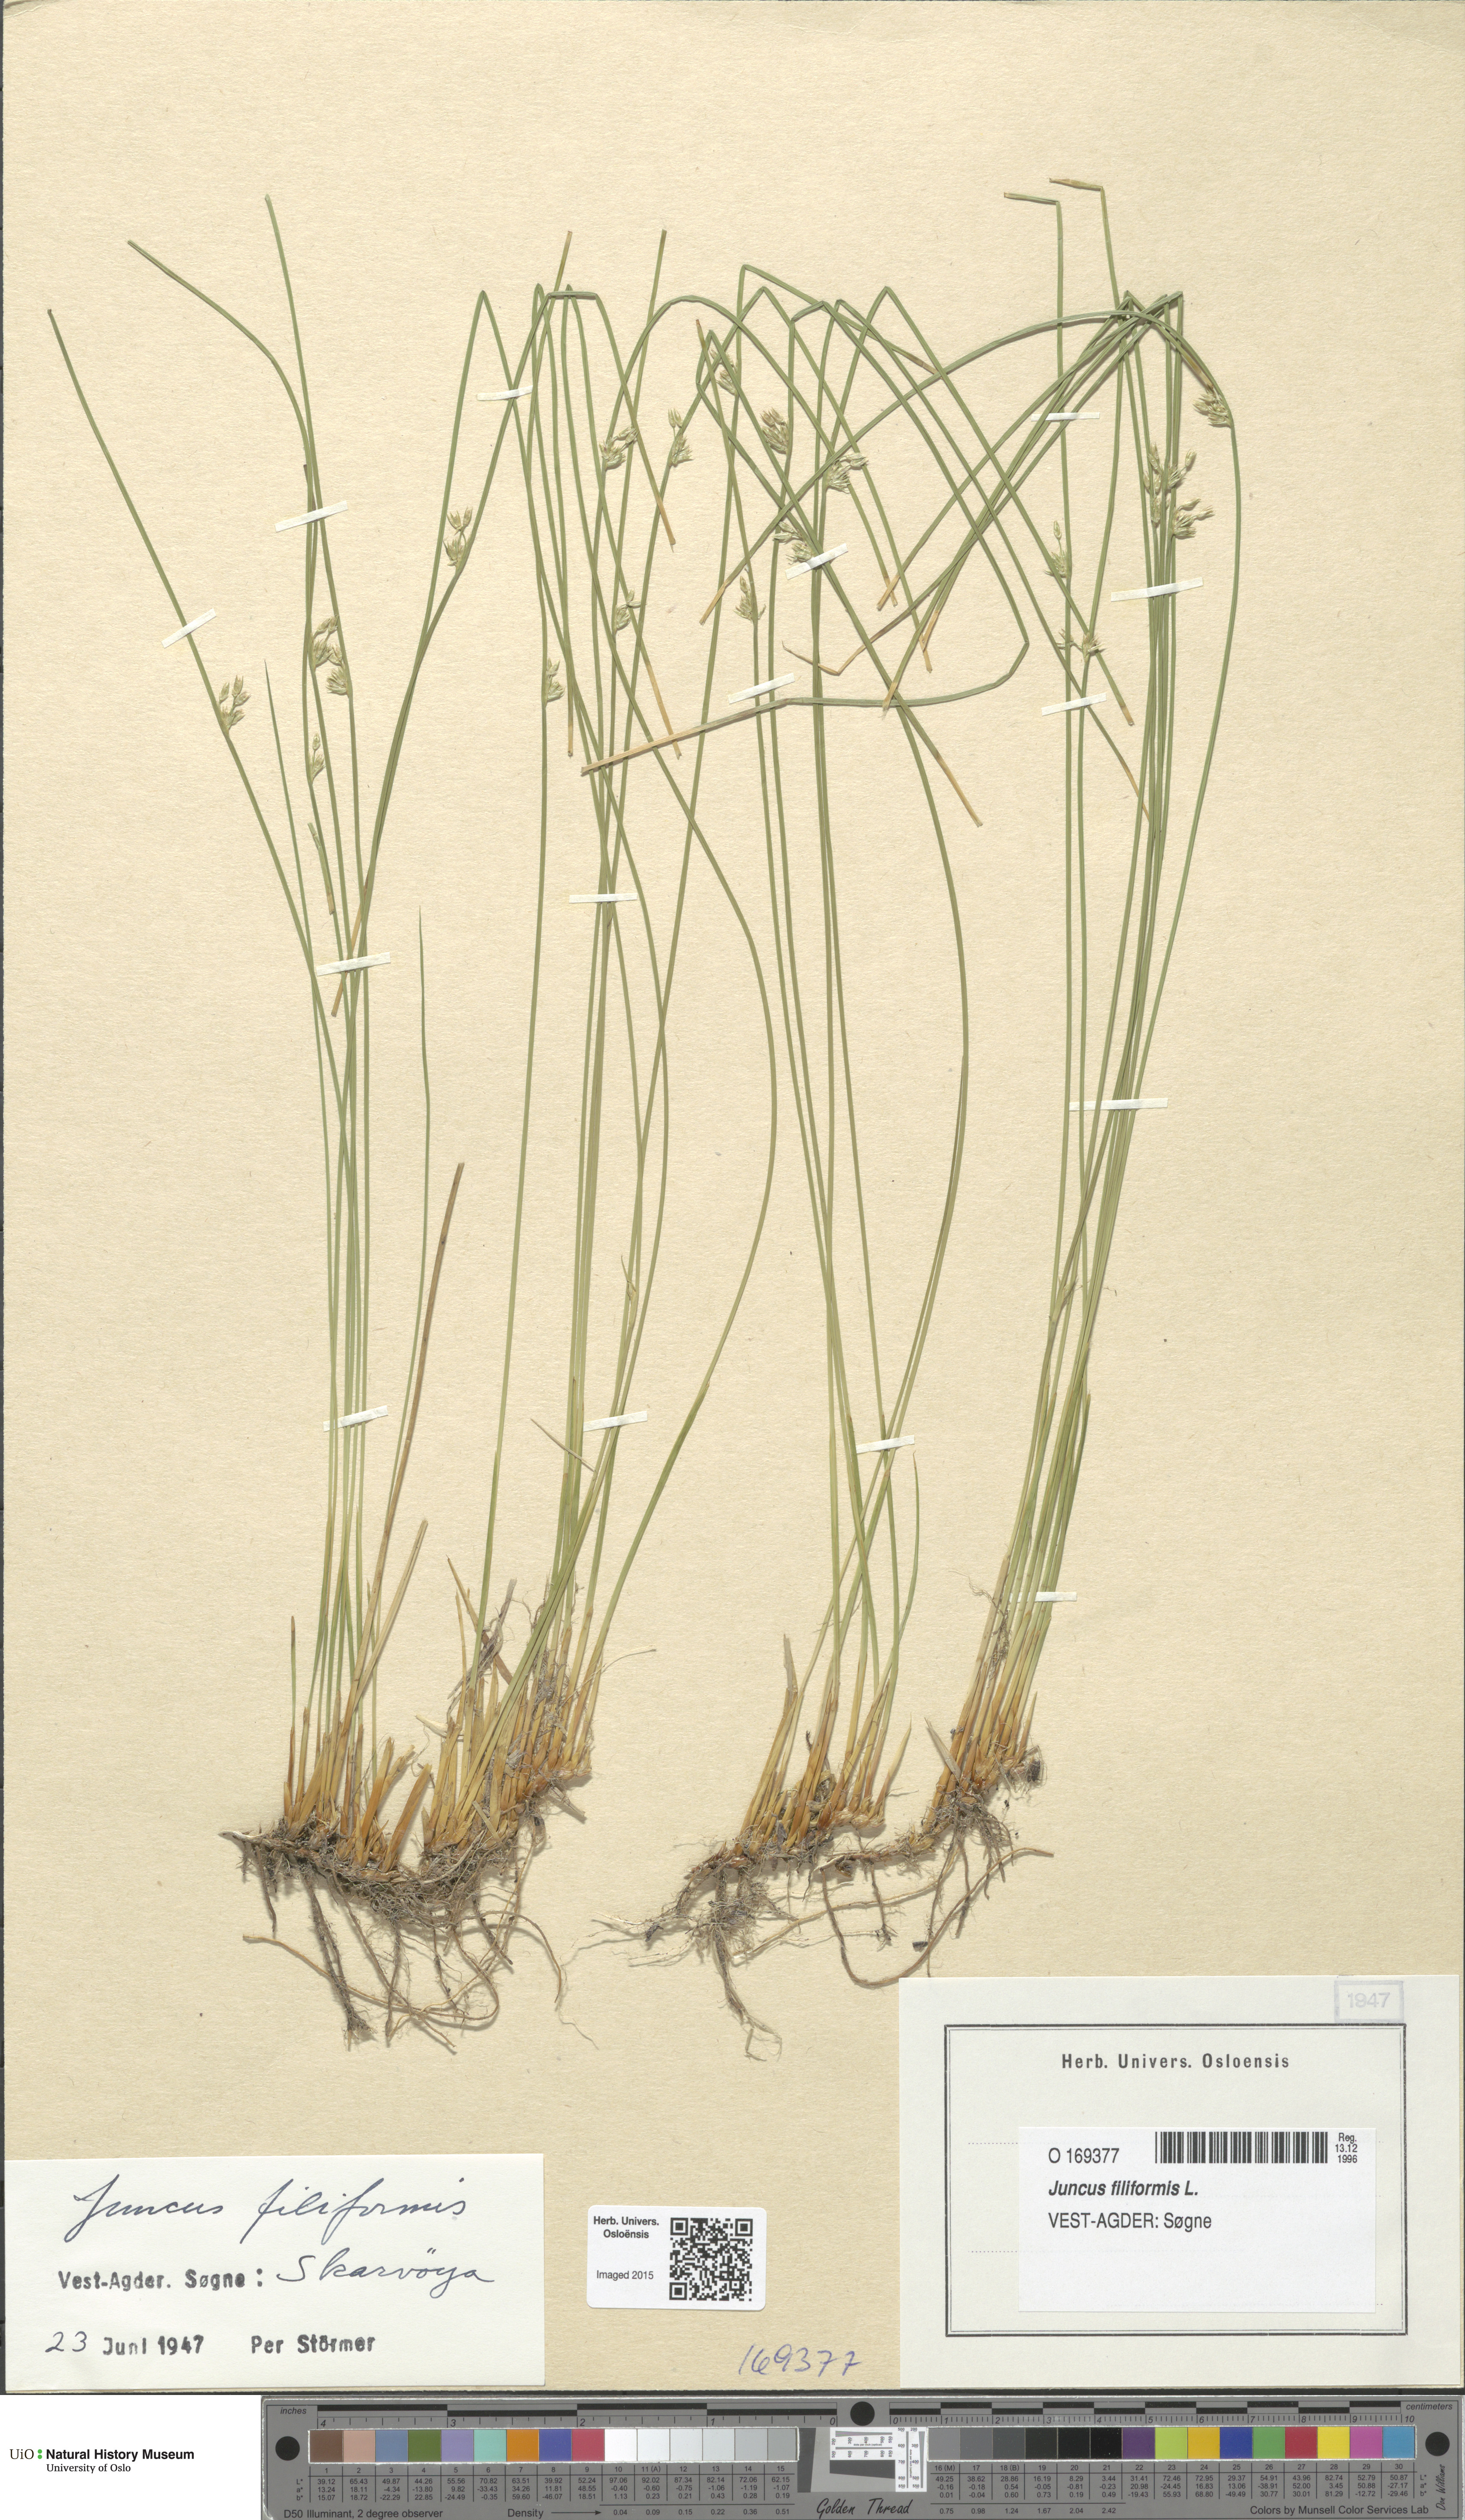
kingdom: Plantae
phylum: Tracheophyta
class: Liliopsida
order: Poales
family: Juncaceae
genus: Juncus
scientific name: Juncus filiformis
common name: Thread rush
